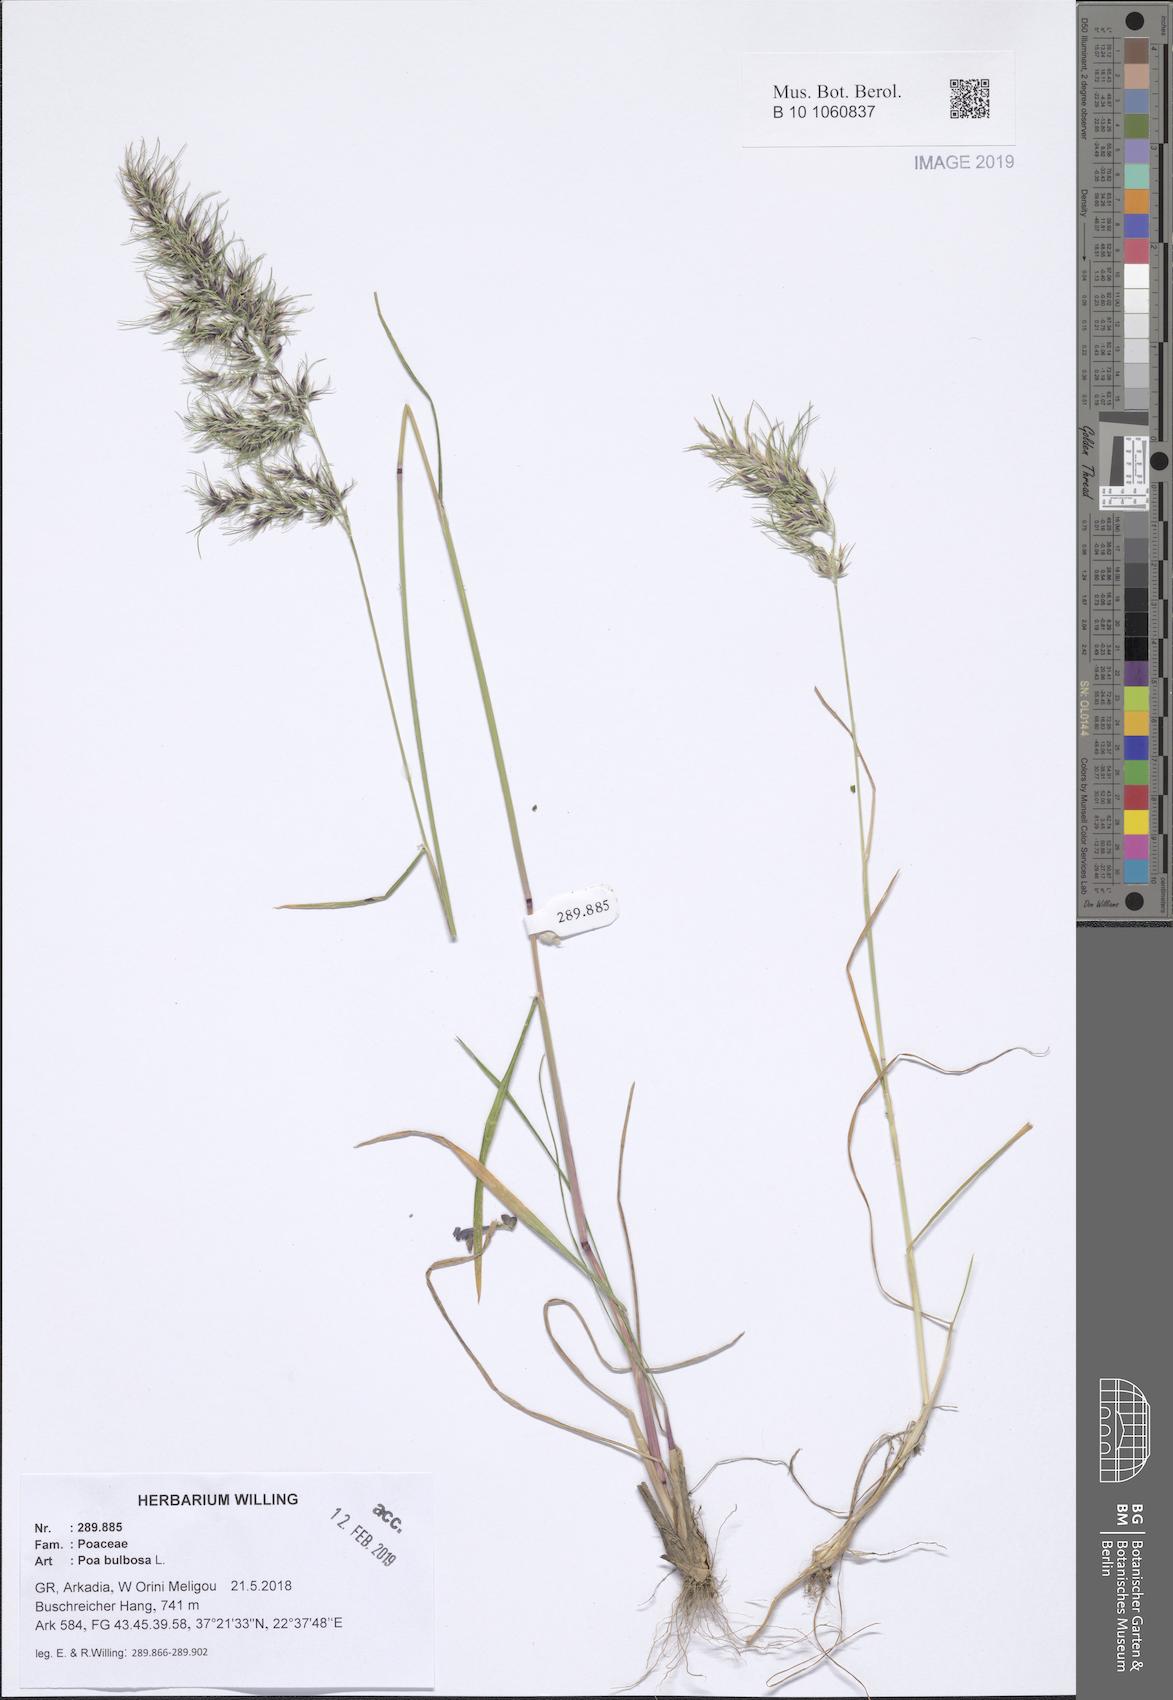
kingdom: Plantae
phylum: Tracheophyta
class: Liliopsida
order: Poales
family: Poaceae
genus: Poa
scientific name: Poa bulbosa
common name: Bulbous bluegrass
